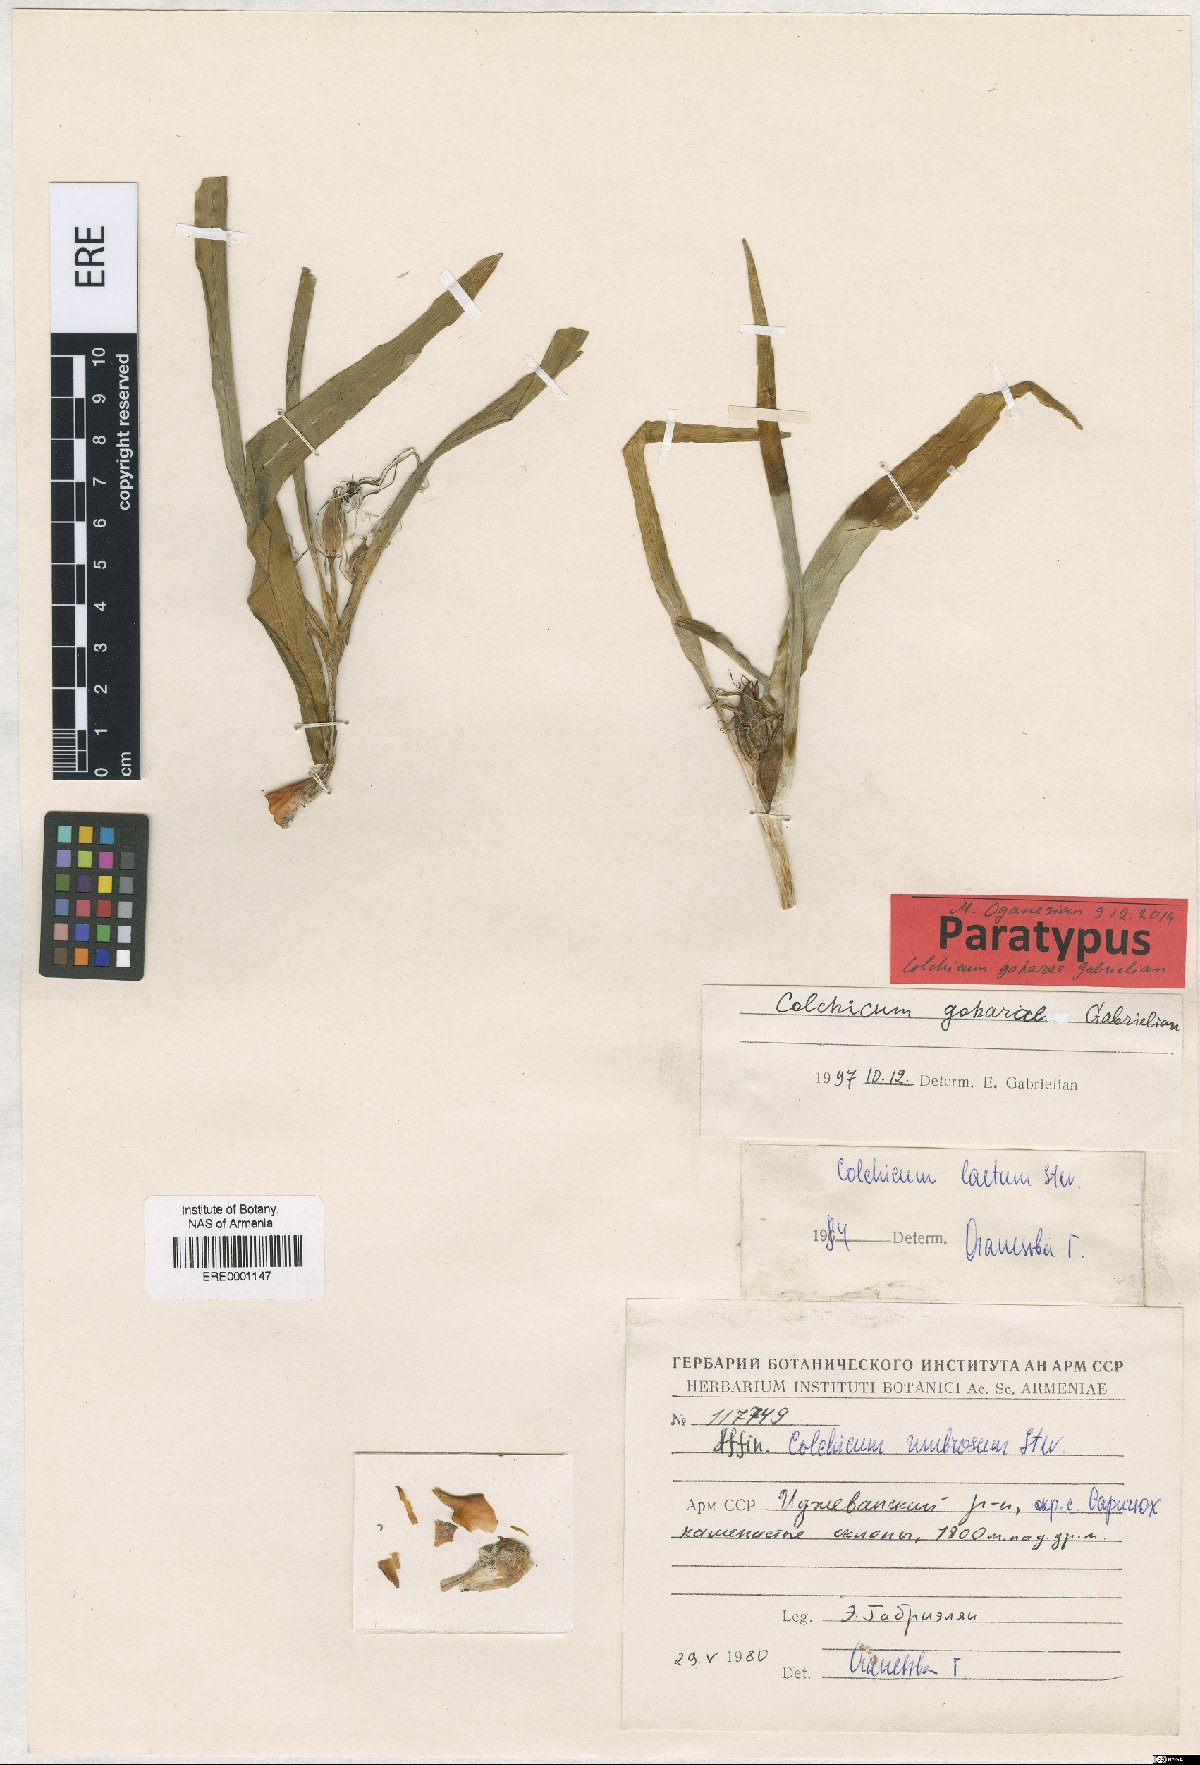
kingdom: Plantae
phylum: Tracheophyta
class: Liliopsida
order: Liliales
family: Colchicaceae
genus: Colchicum
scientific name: Colchicum szovitsii
